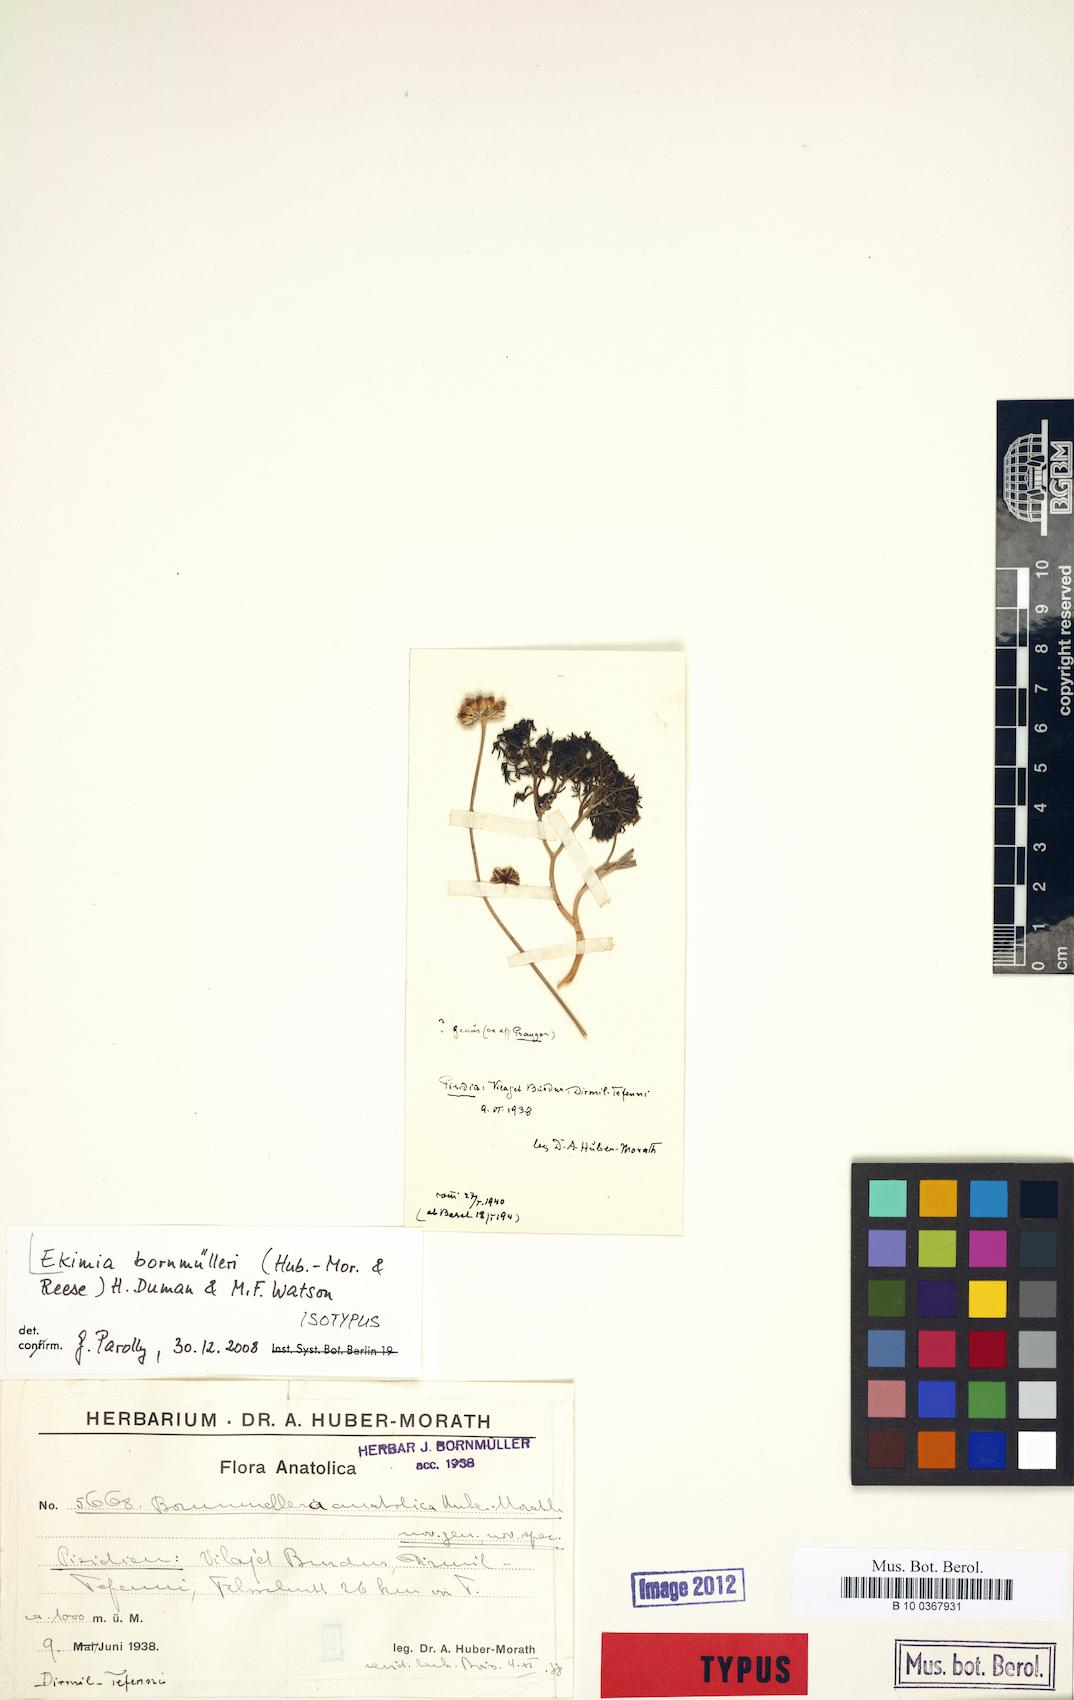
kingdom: Plantae
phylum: Tracheophyta
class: Magnoliopsida
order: Apiales
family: Apiaceae
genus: Ekimia
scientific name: Ekimia bornmuelleri
